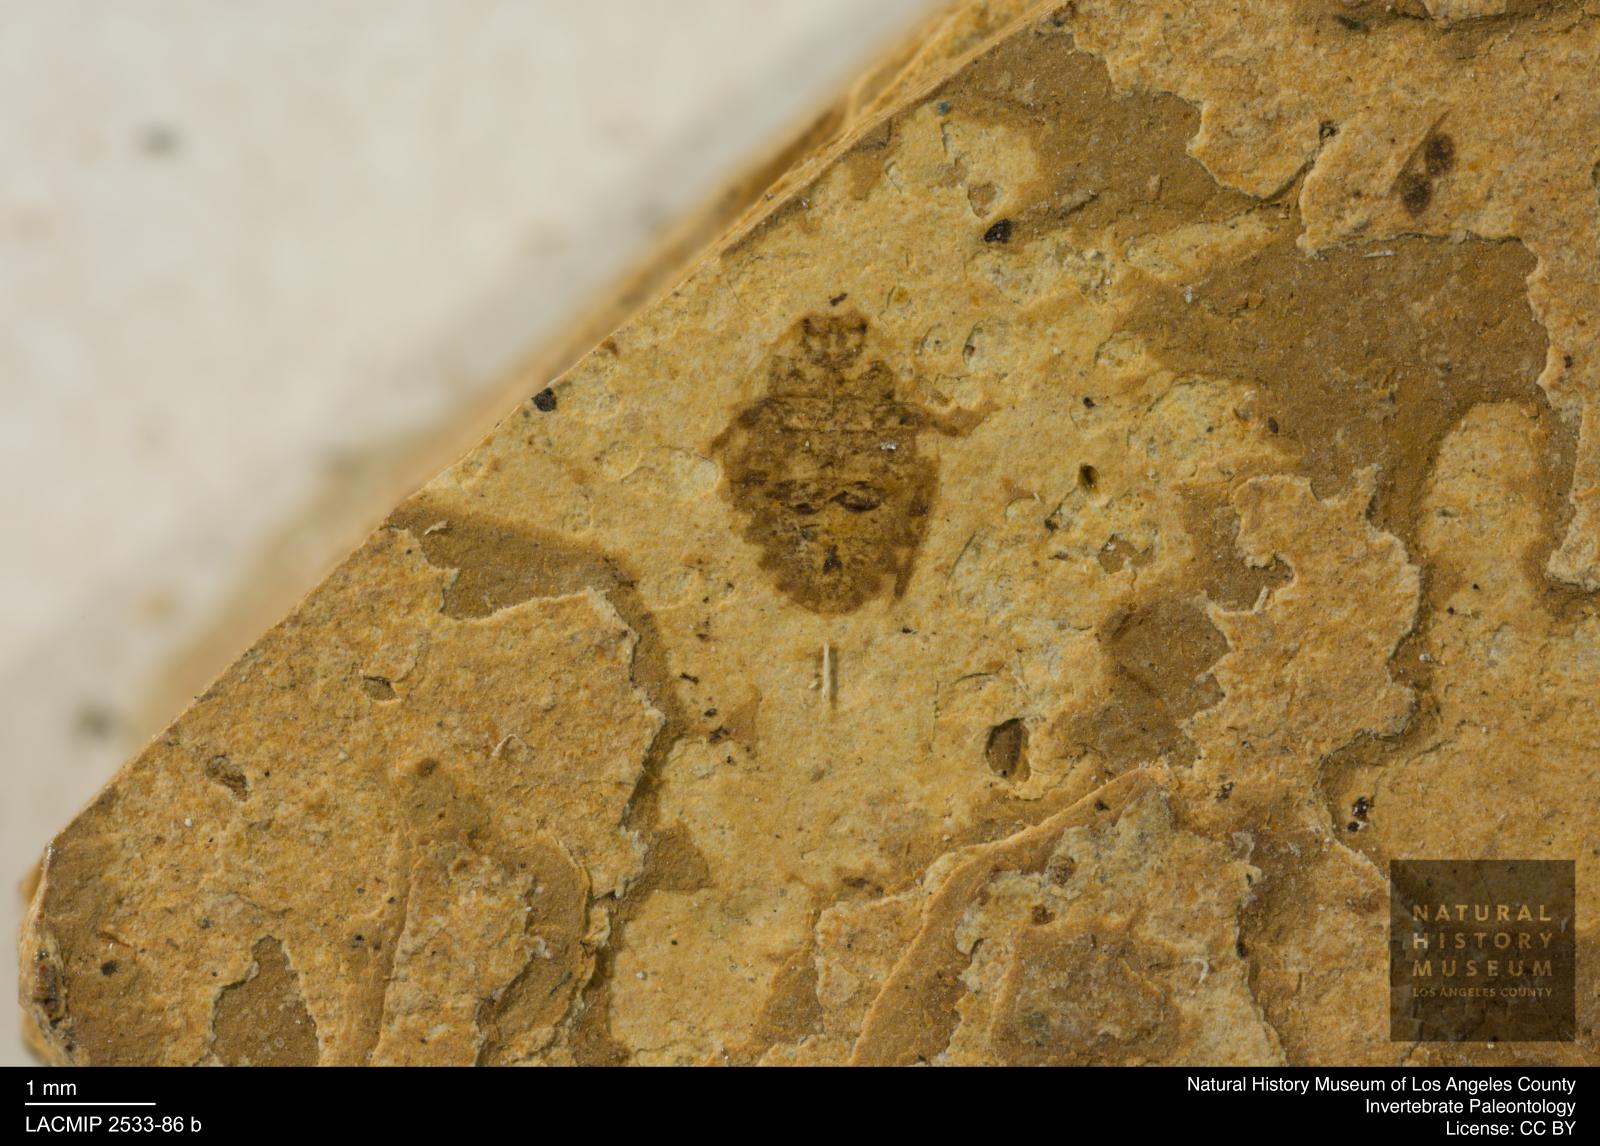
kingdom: Animalia
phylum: Arthropoda
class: Insecta
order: Hemiptera
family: Naucoridae
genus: Naucoris
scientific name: Naucoris rottensis
